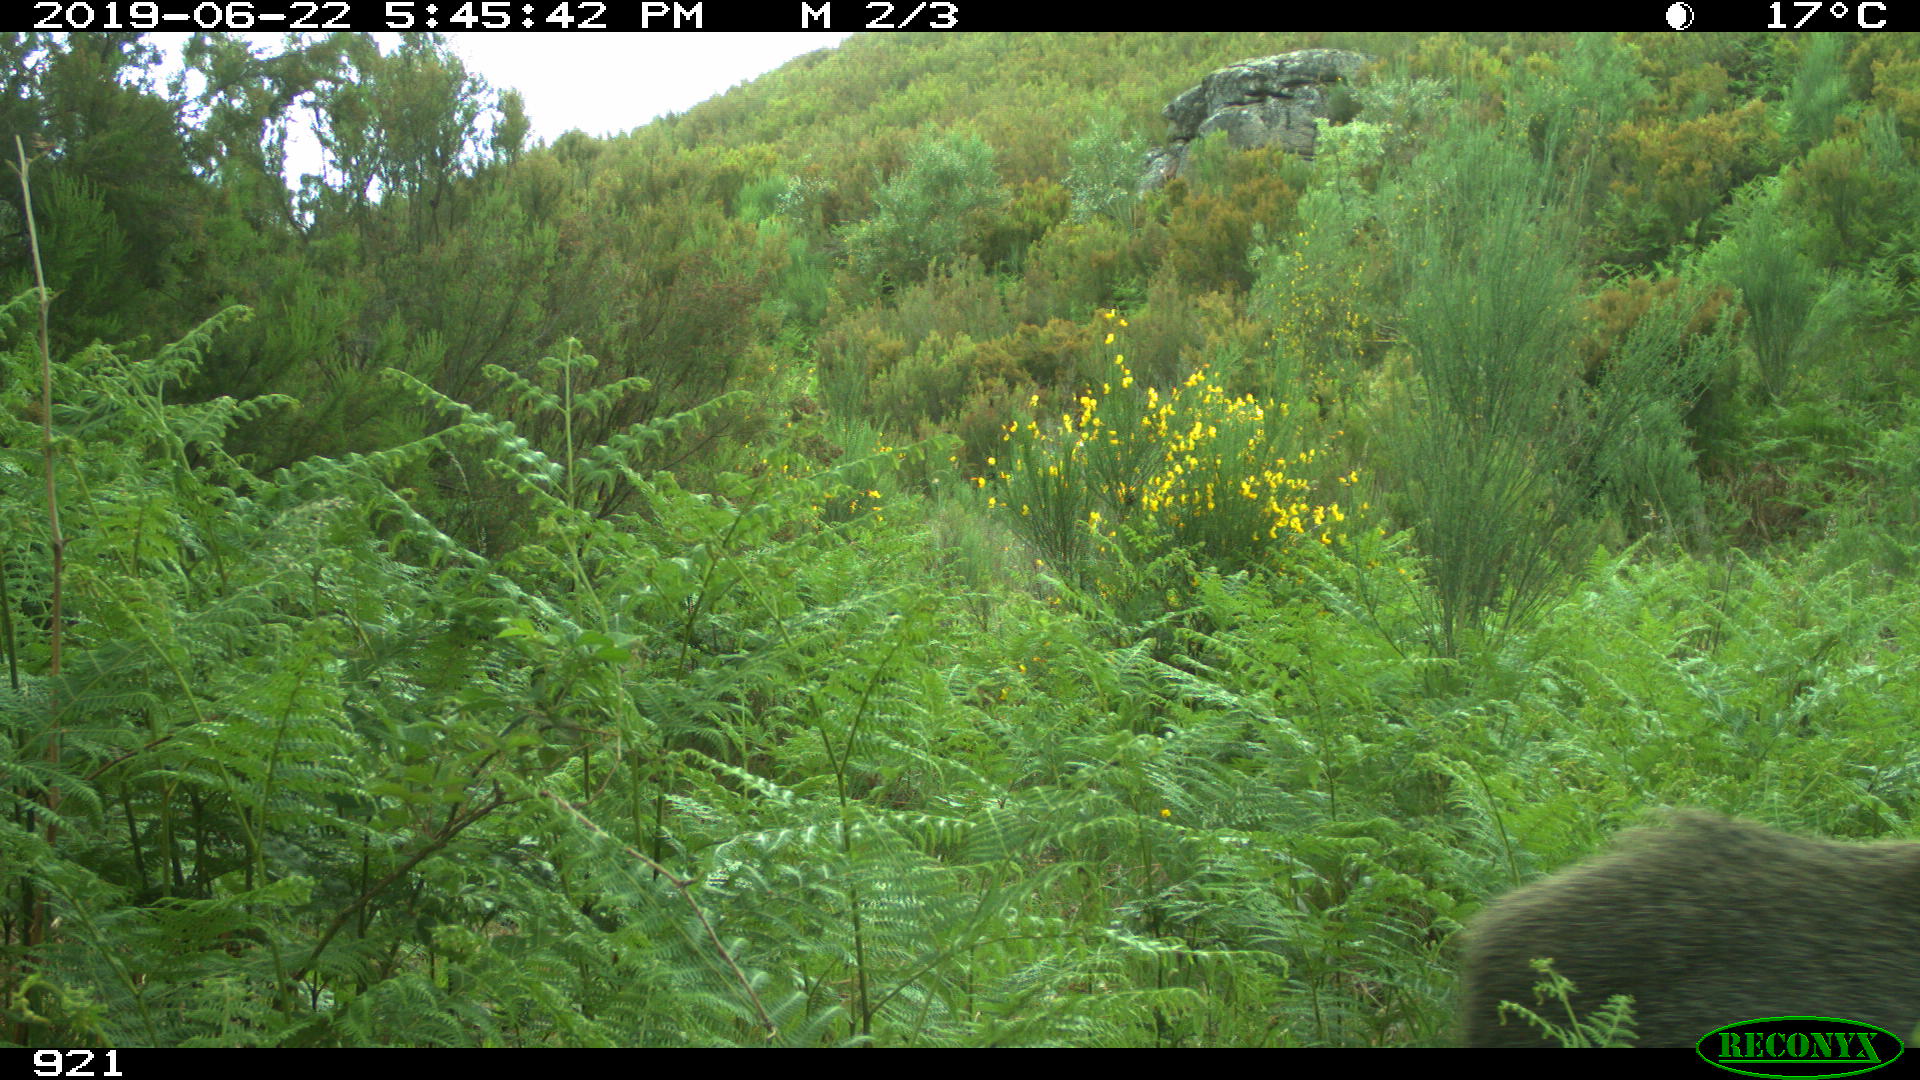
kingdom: Animalia
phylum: Chordata
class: Mammalia
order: Artiodactyla
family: Suidae
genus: Sus
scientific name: Sus scrofa
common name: Wild boar
